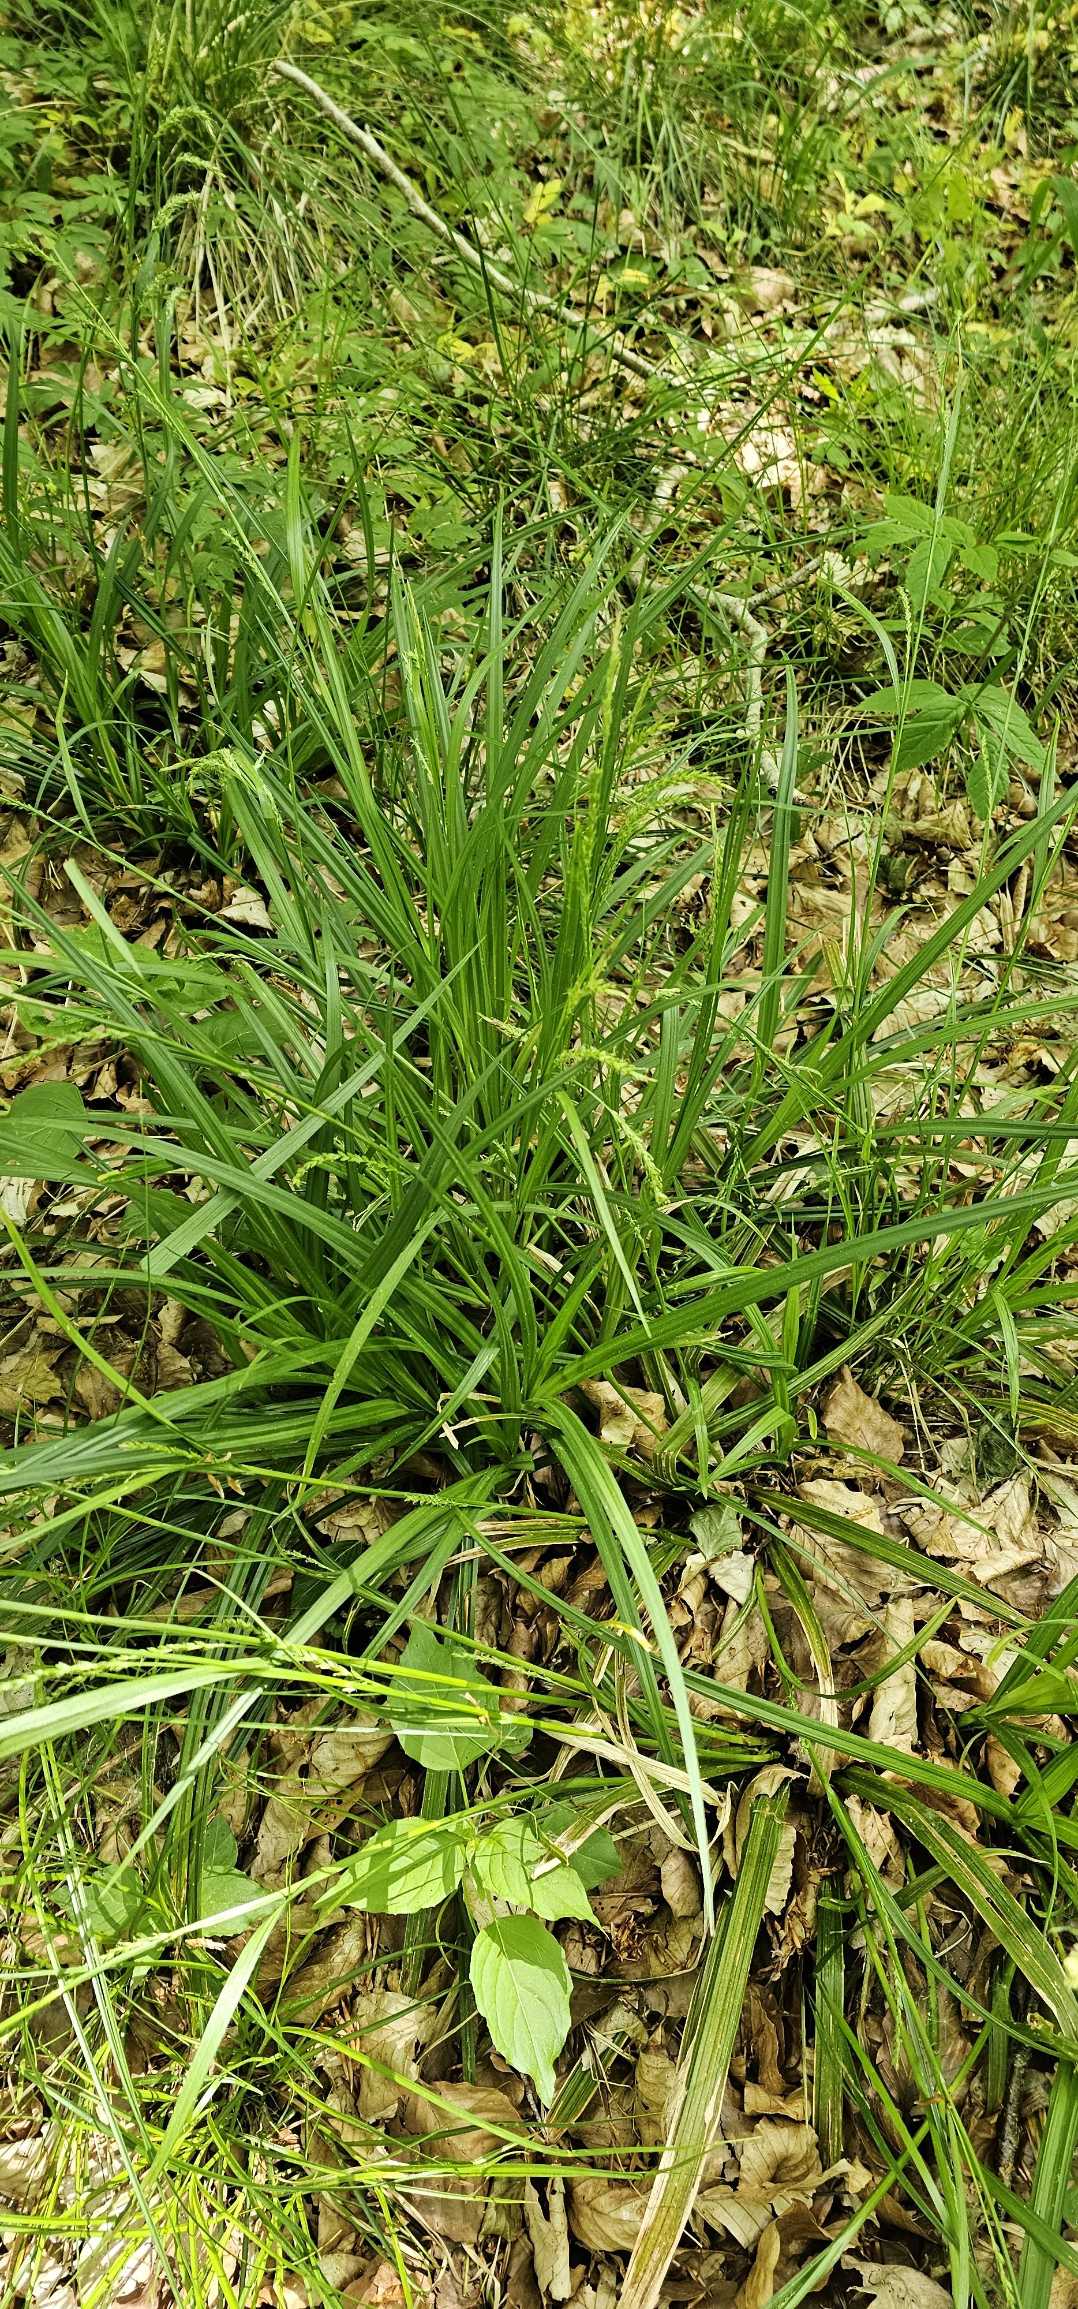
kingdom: Plantae
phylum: Tracheophyta
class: Liliopsida
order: Poales
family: Cyperaceae
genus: Carex
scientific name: Carex sylvatica
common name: Skov-star
